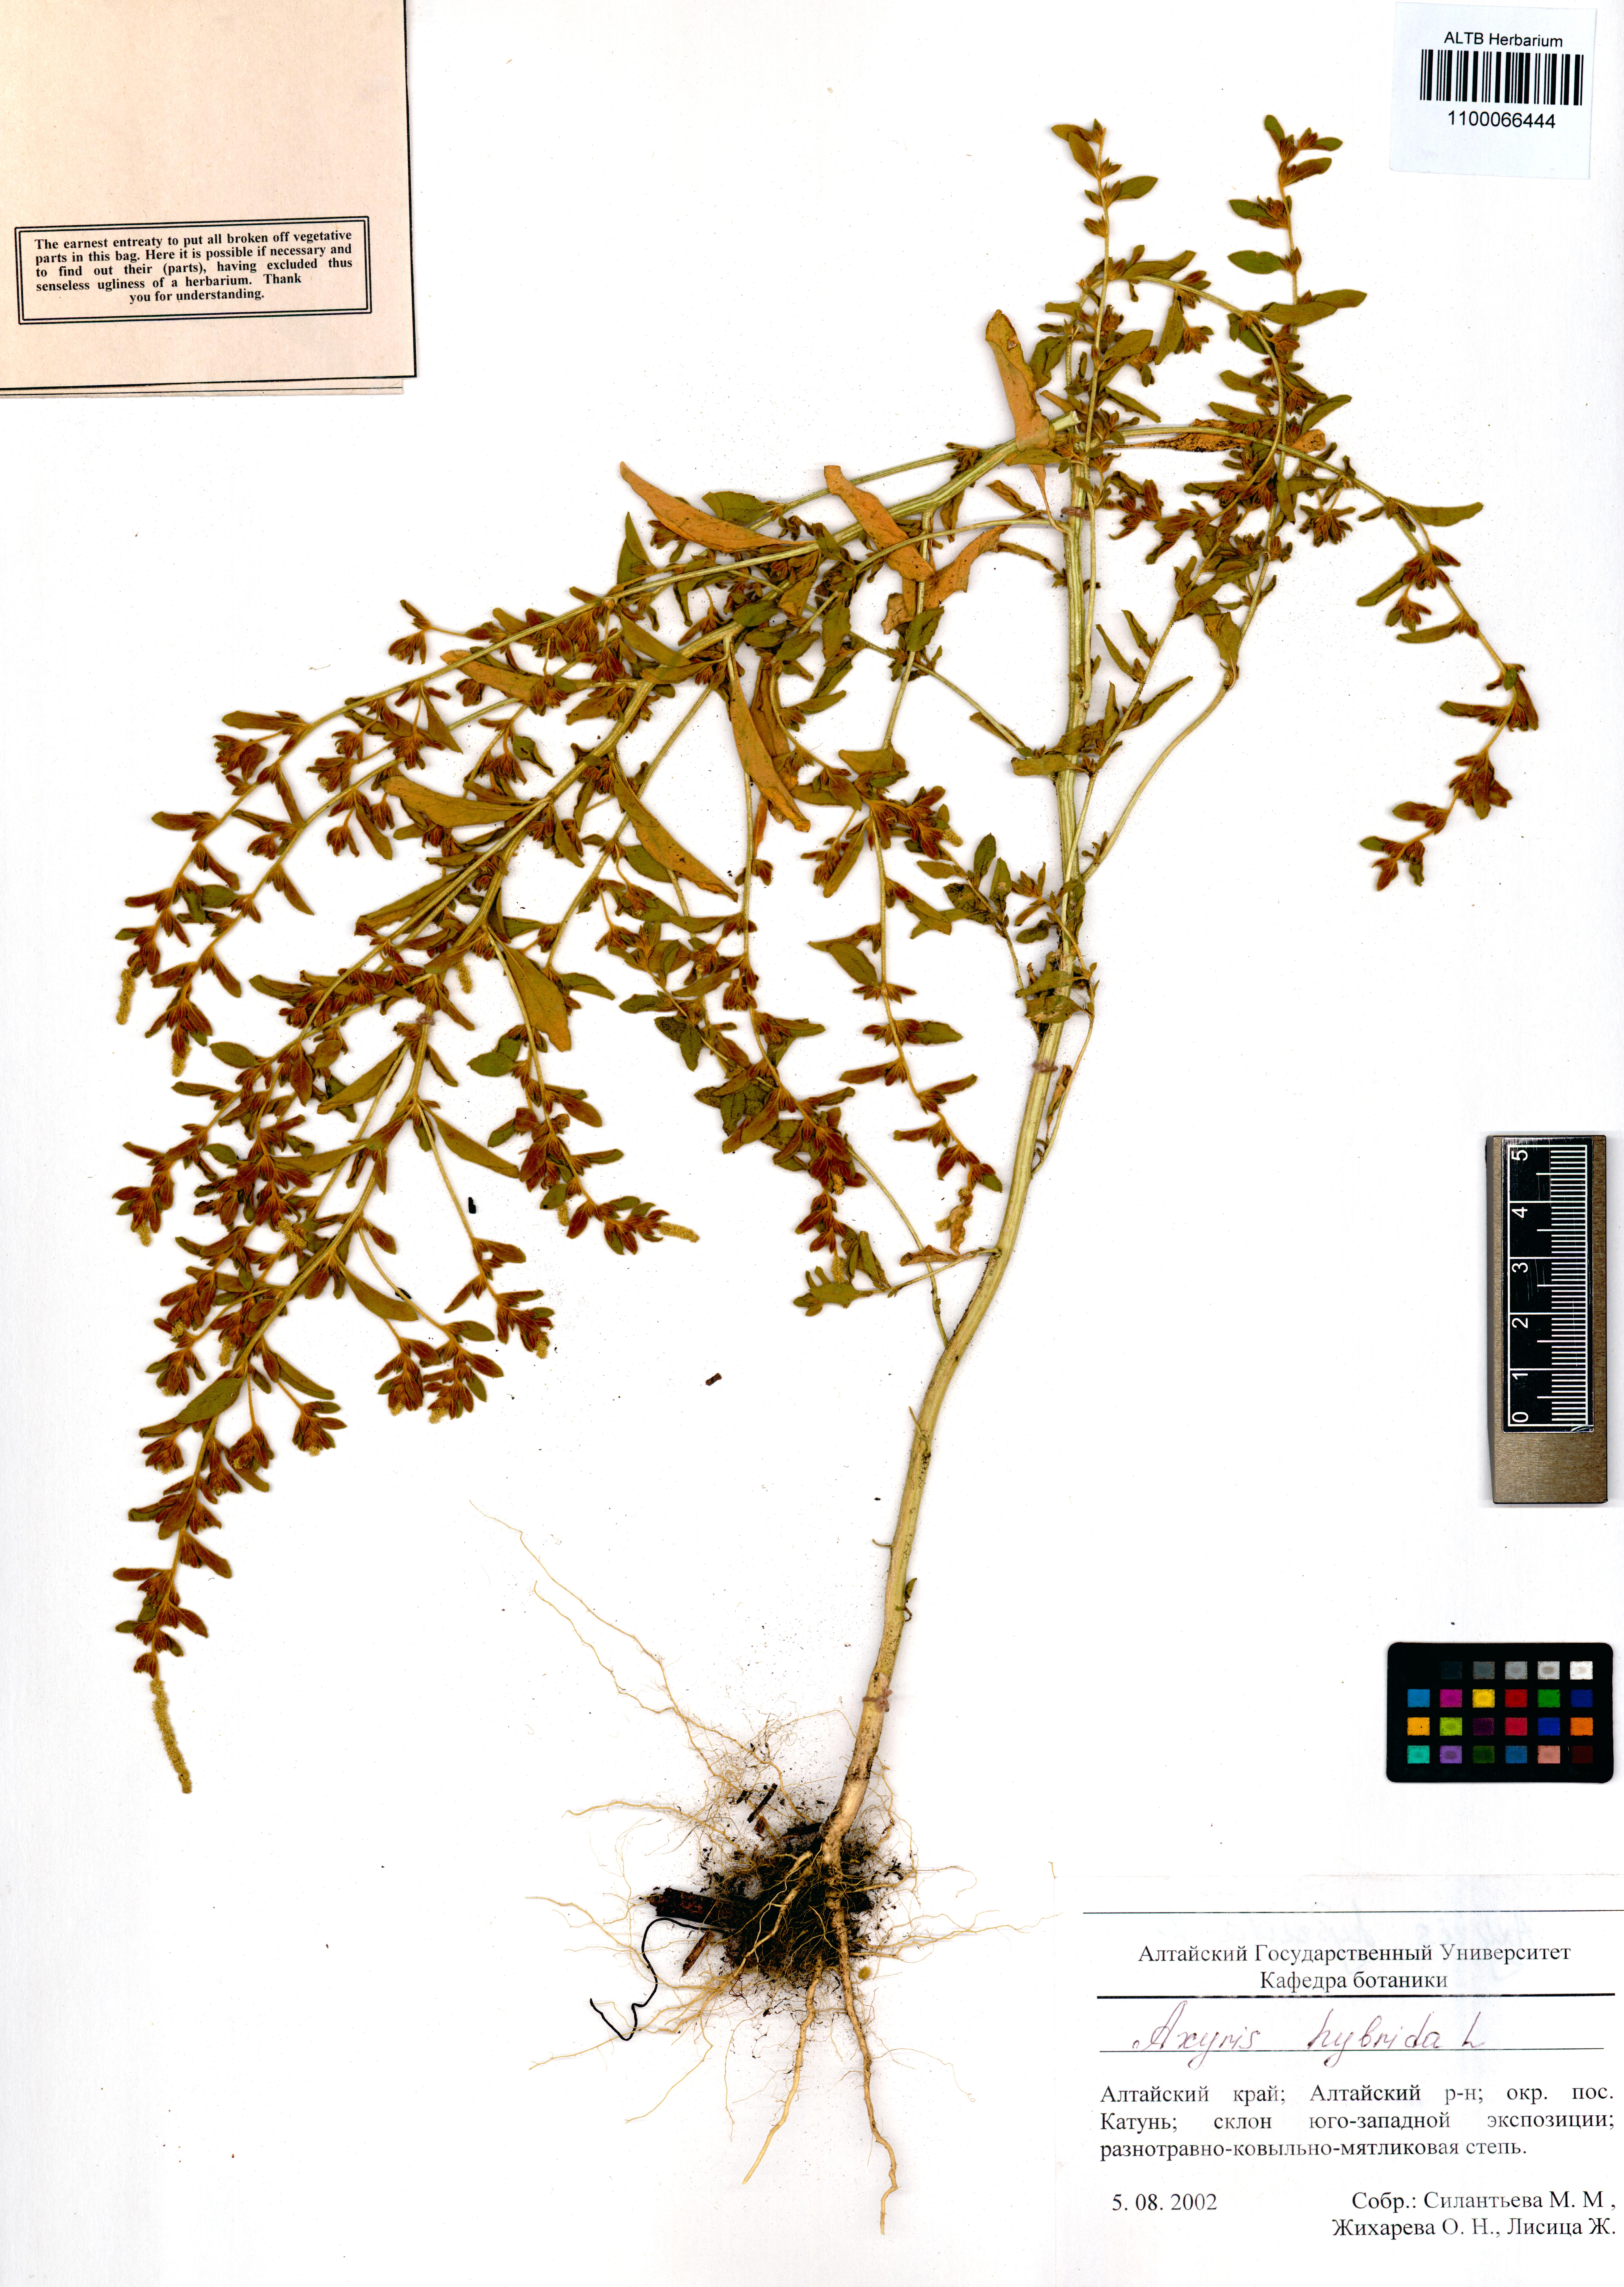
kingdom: Plantae
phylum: Tracheophyta
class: Magnoliopsida
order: Caryophyllales
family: Amaranthaceae
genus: Axyris
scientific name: Axyris hybrida
